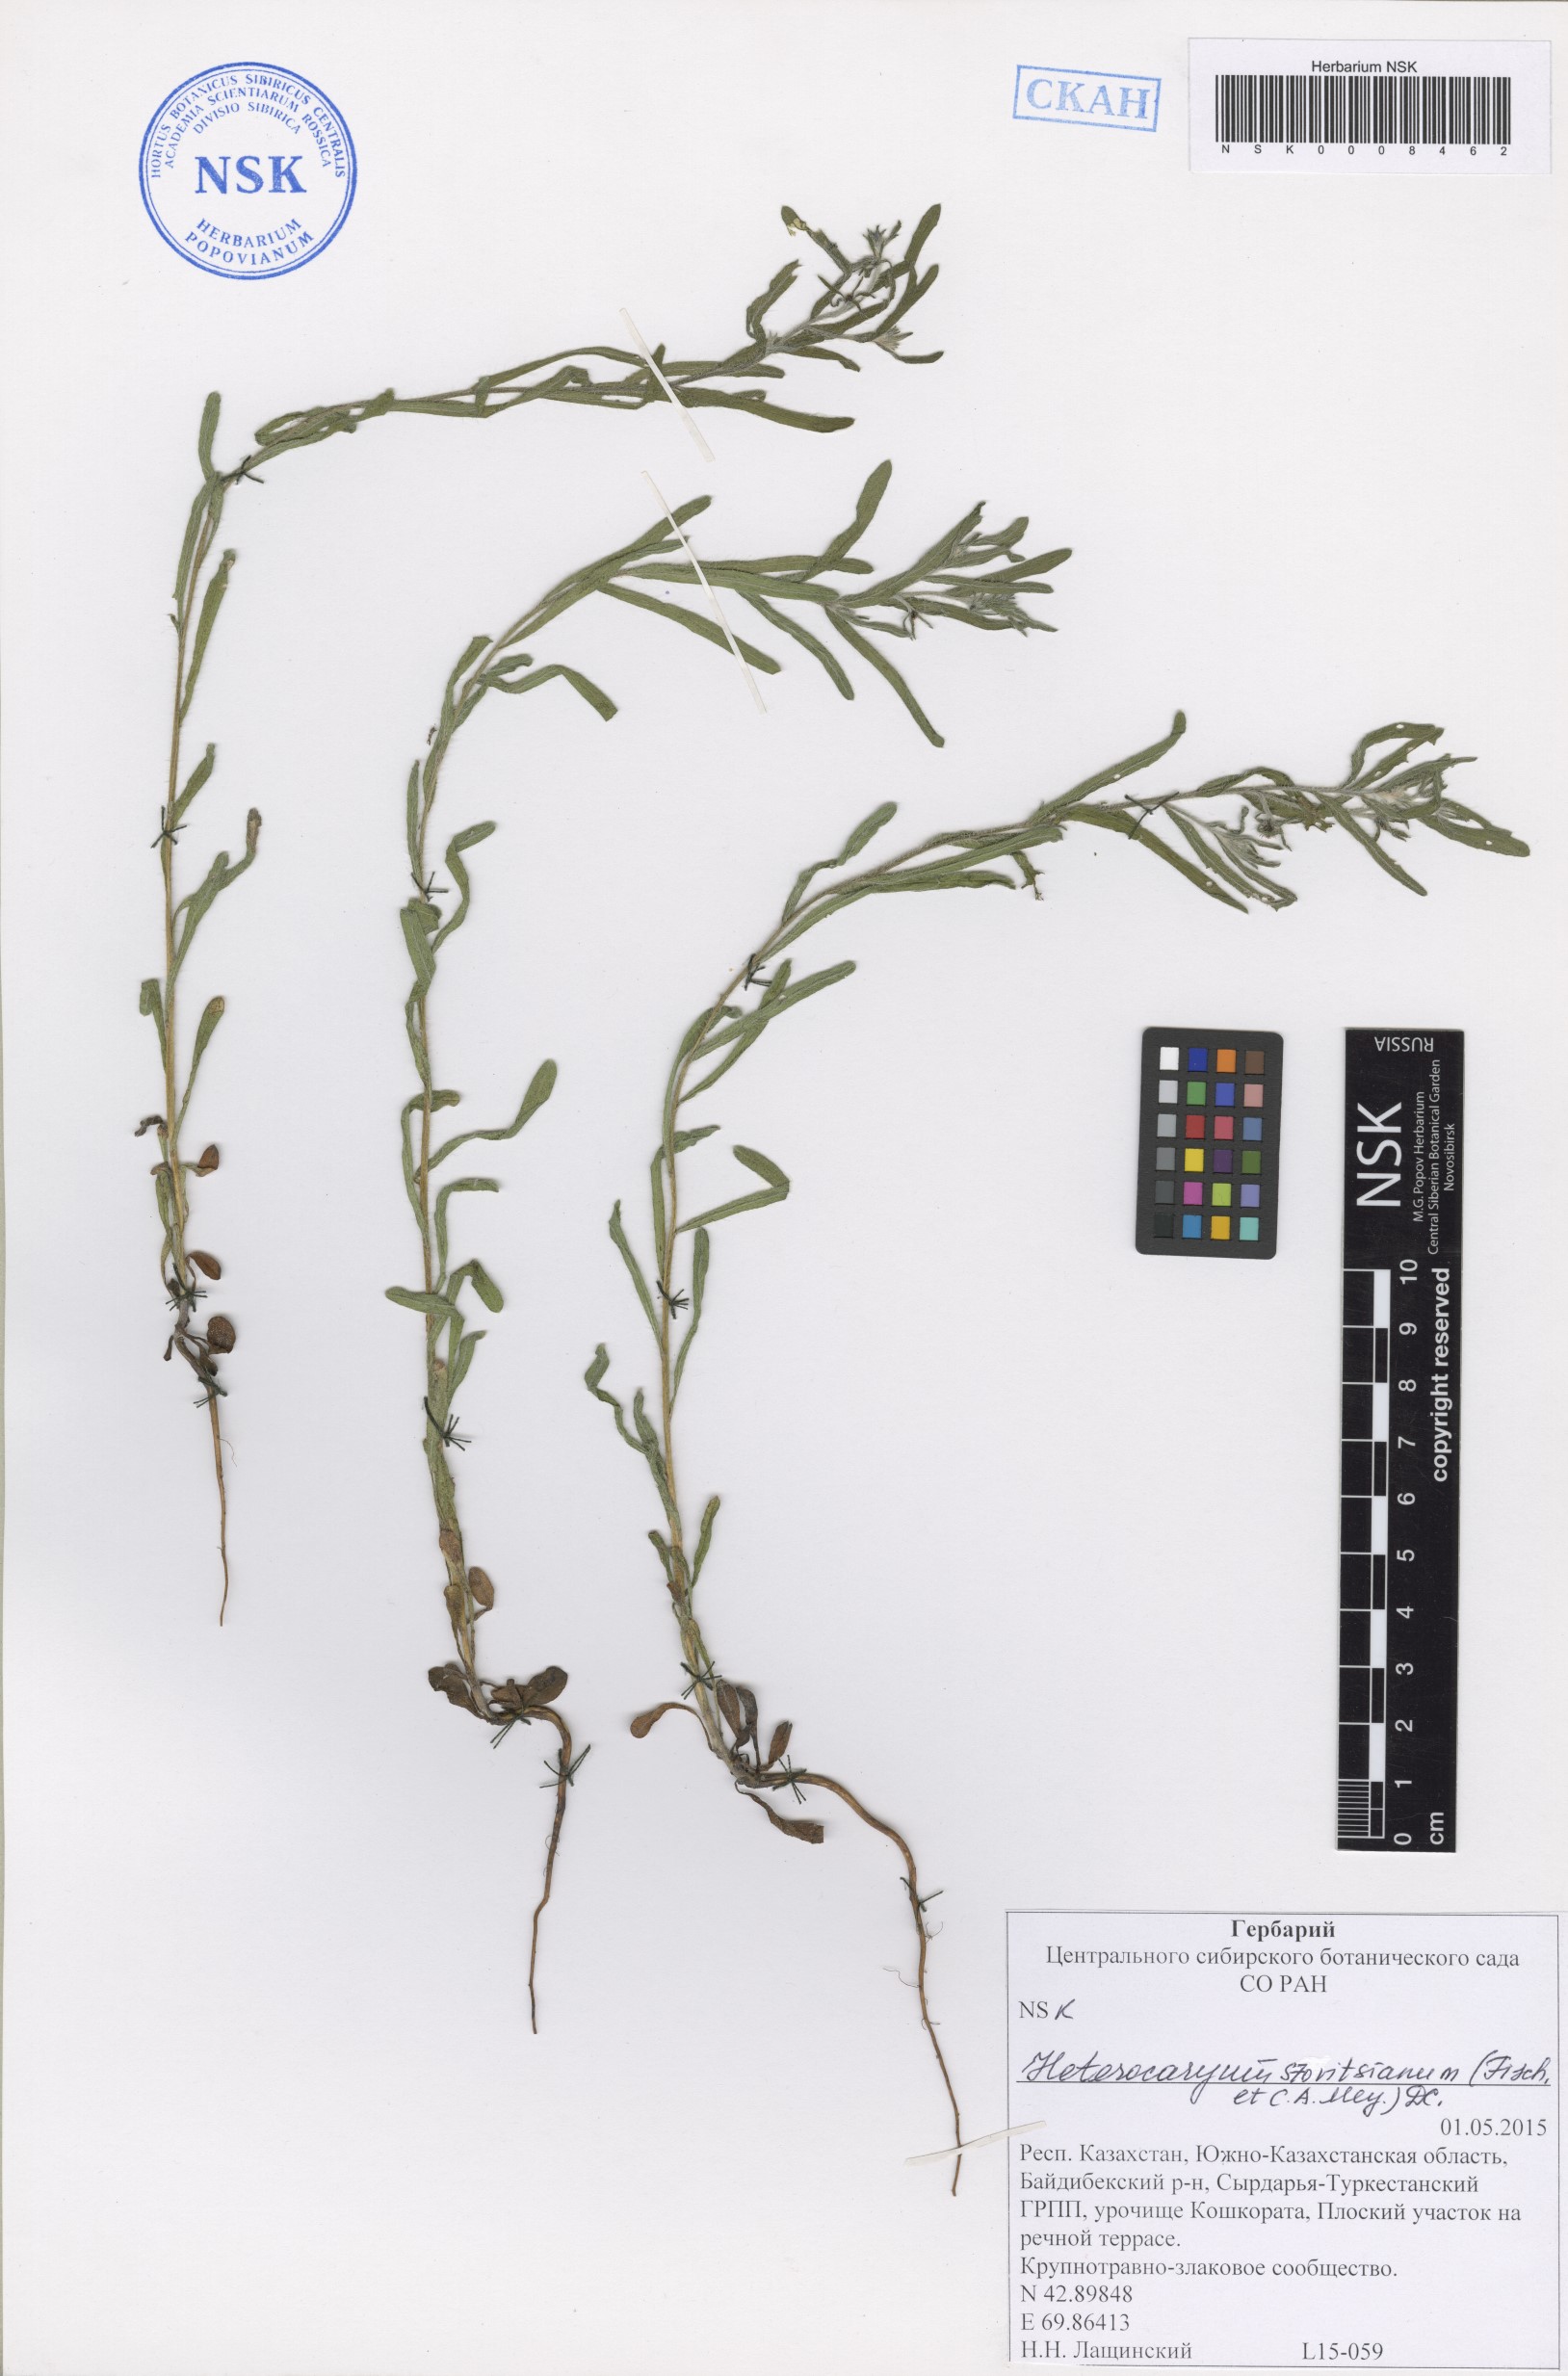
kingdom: Plantae
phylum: Tracheophyta
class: Magnoliopsida
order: Boraginales
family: Boraginaceae
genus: Pseudoheterocaryum
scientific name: Pseudoheterocaryum szovitsianum
